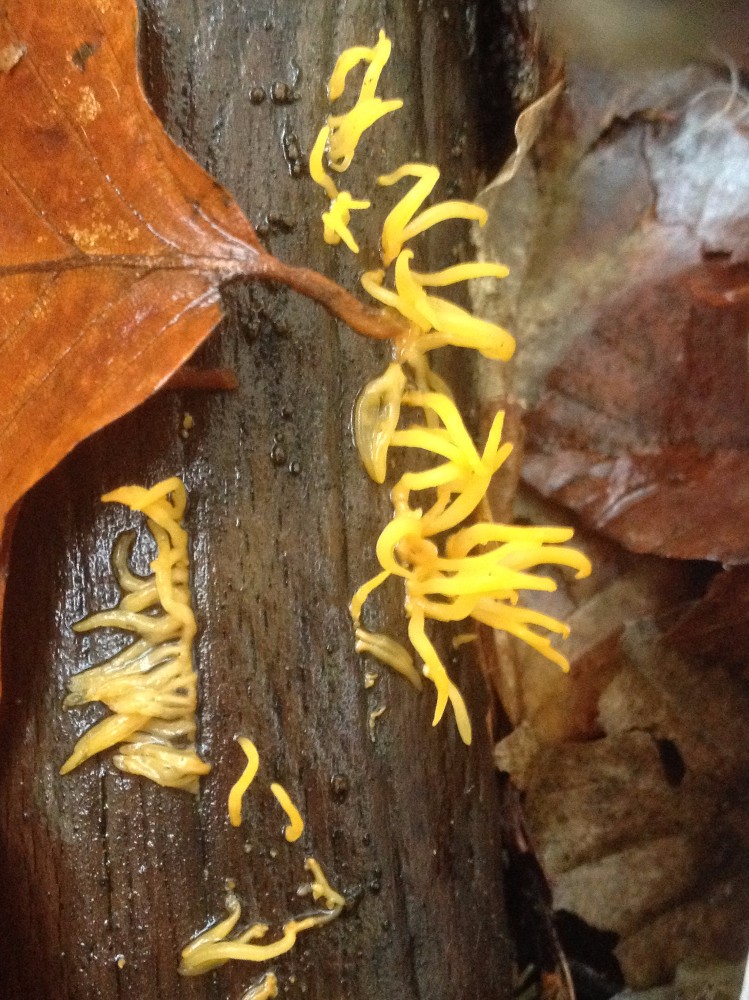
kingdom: Fungi
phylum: Basidiomycota
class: Dacrymycetes
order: Dacrymycetales
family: Dacrymycetaceae
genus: Calocera
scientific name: Calocera cornea
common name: liden guldgaffel
